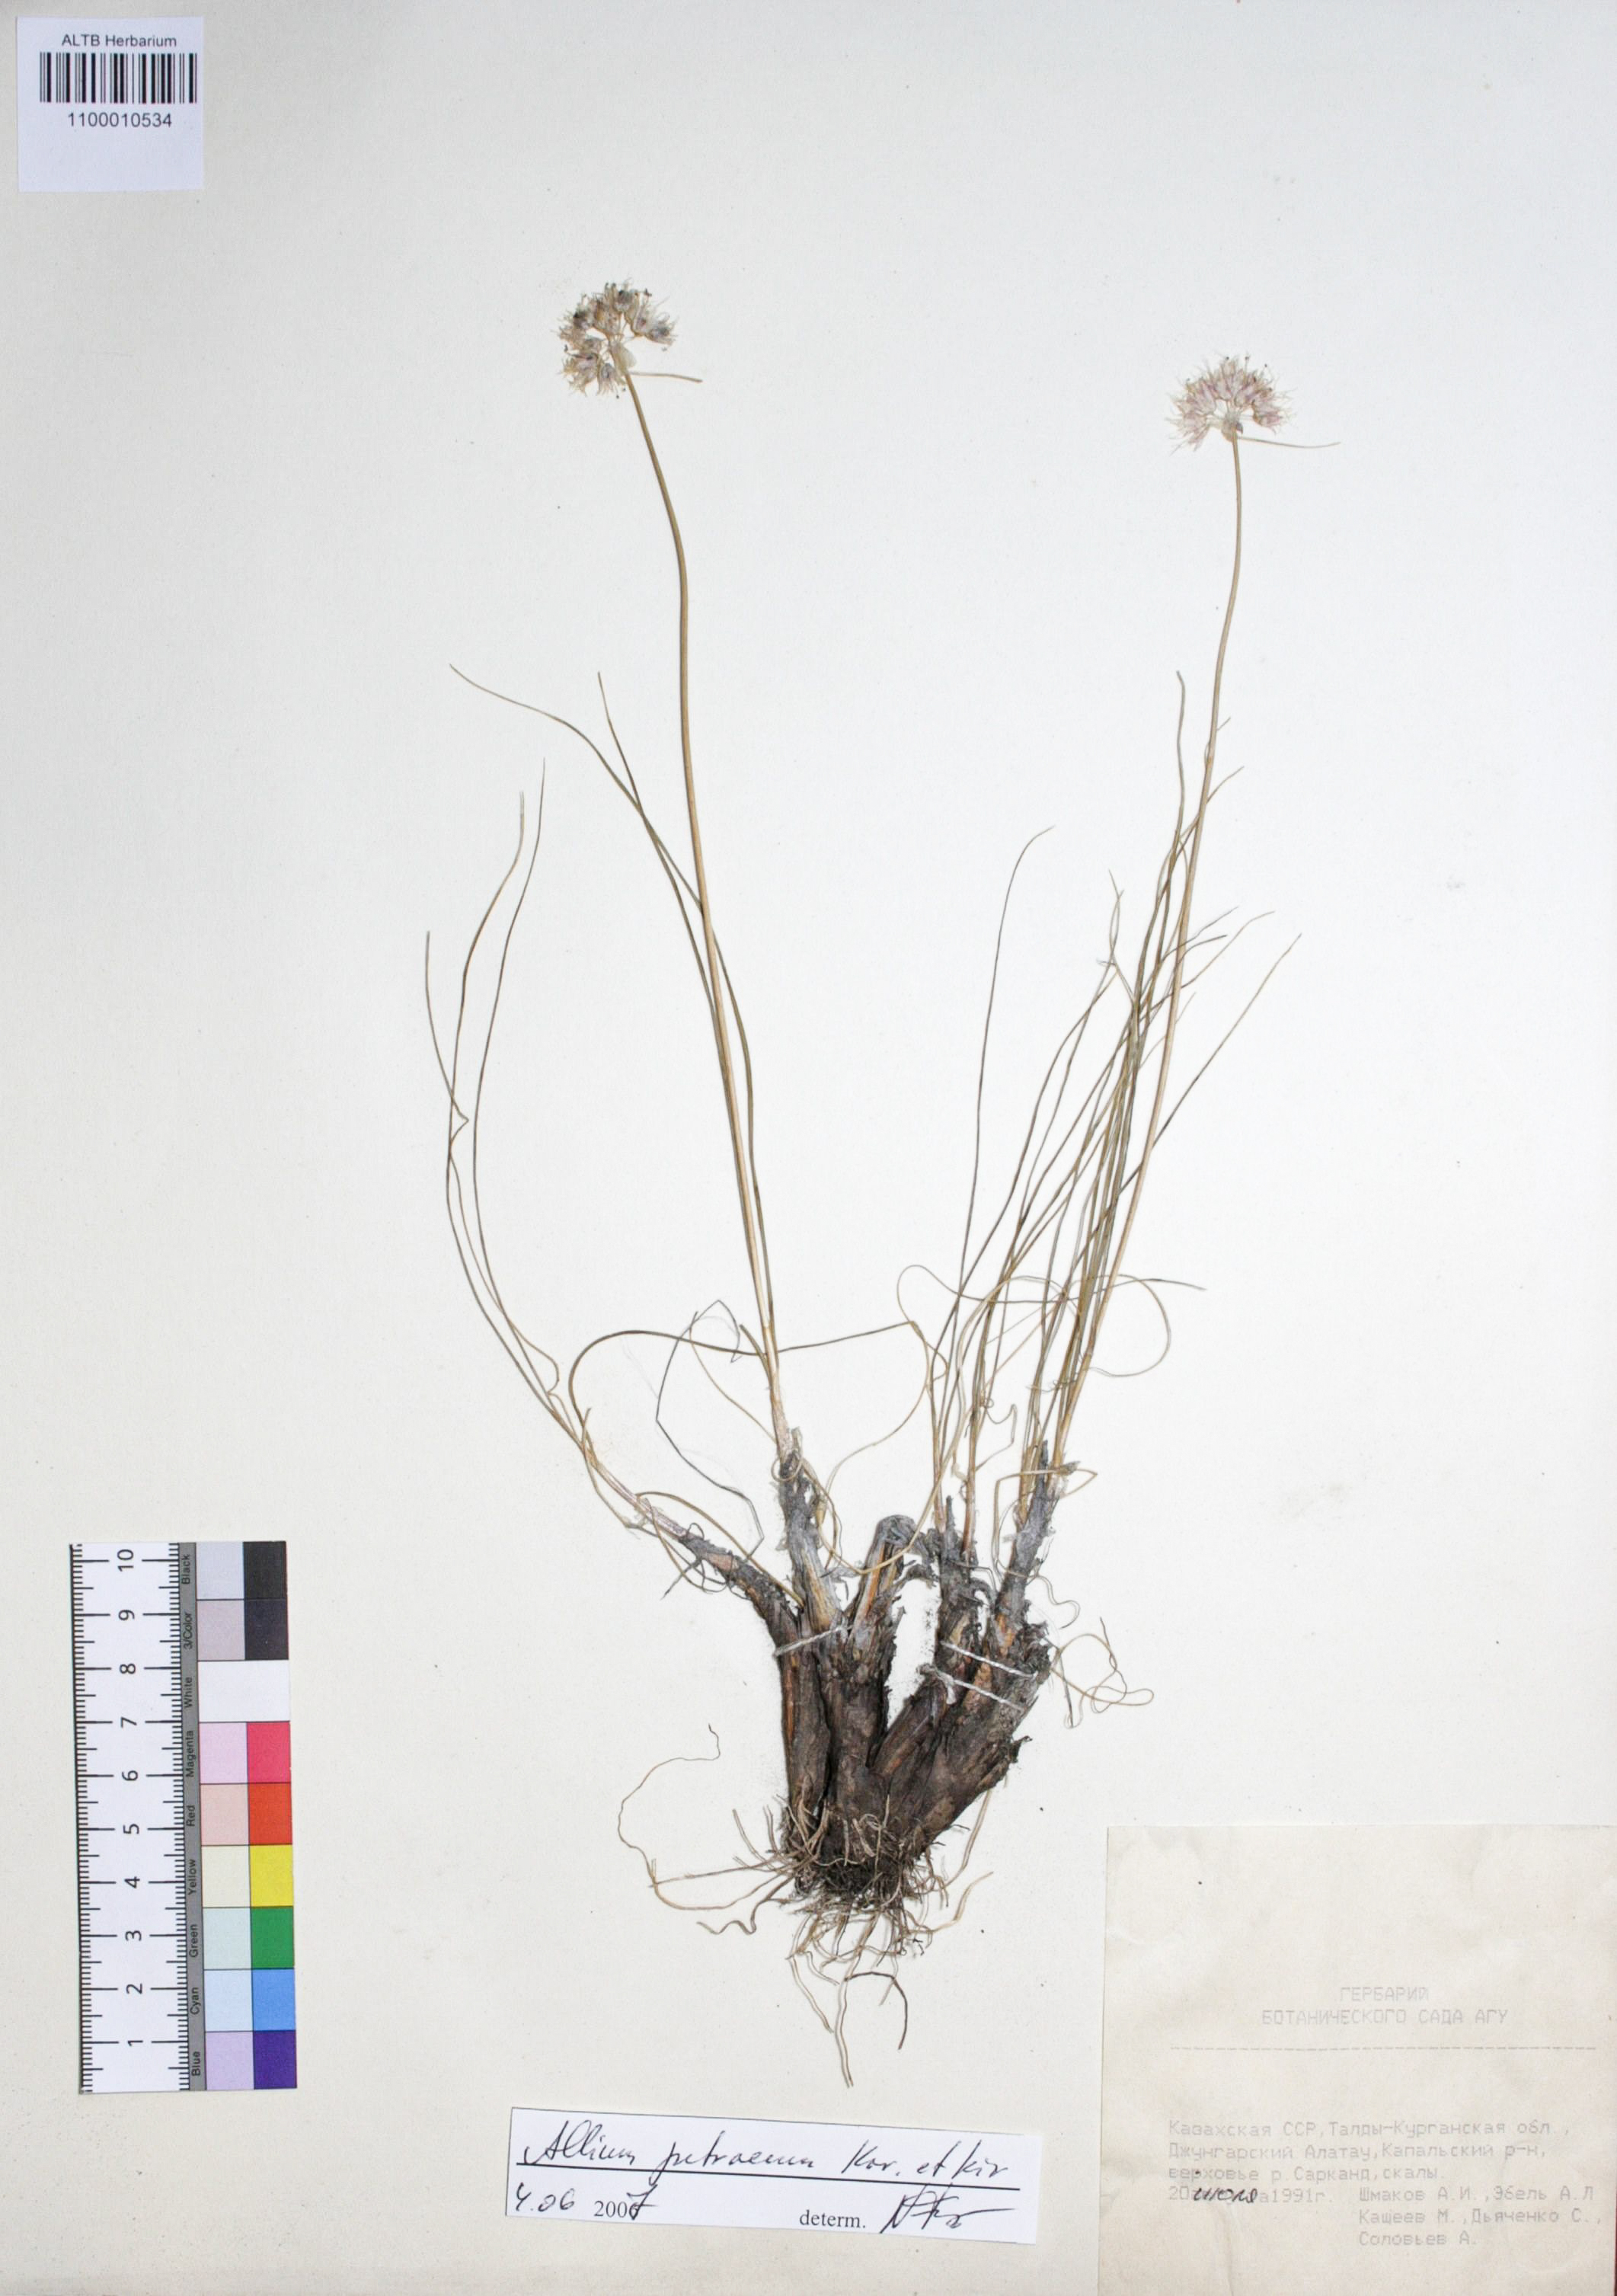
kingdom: Plantae
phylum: Tracheophyta
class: Liliopsida
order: Asparagales
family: Amaryllidaceae
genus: Allium
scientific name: Allium petraeum
